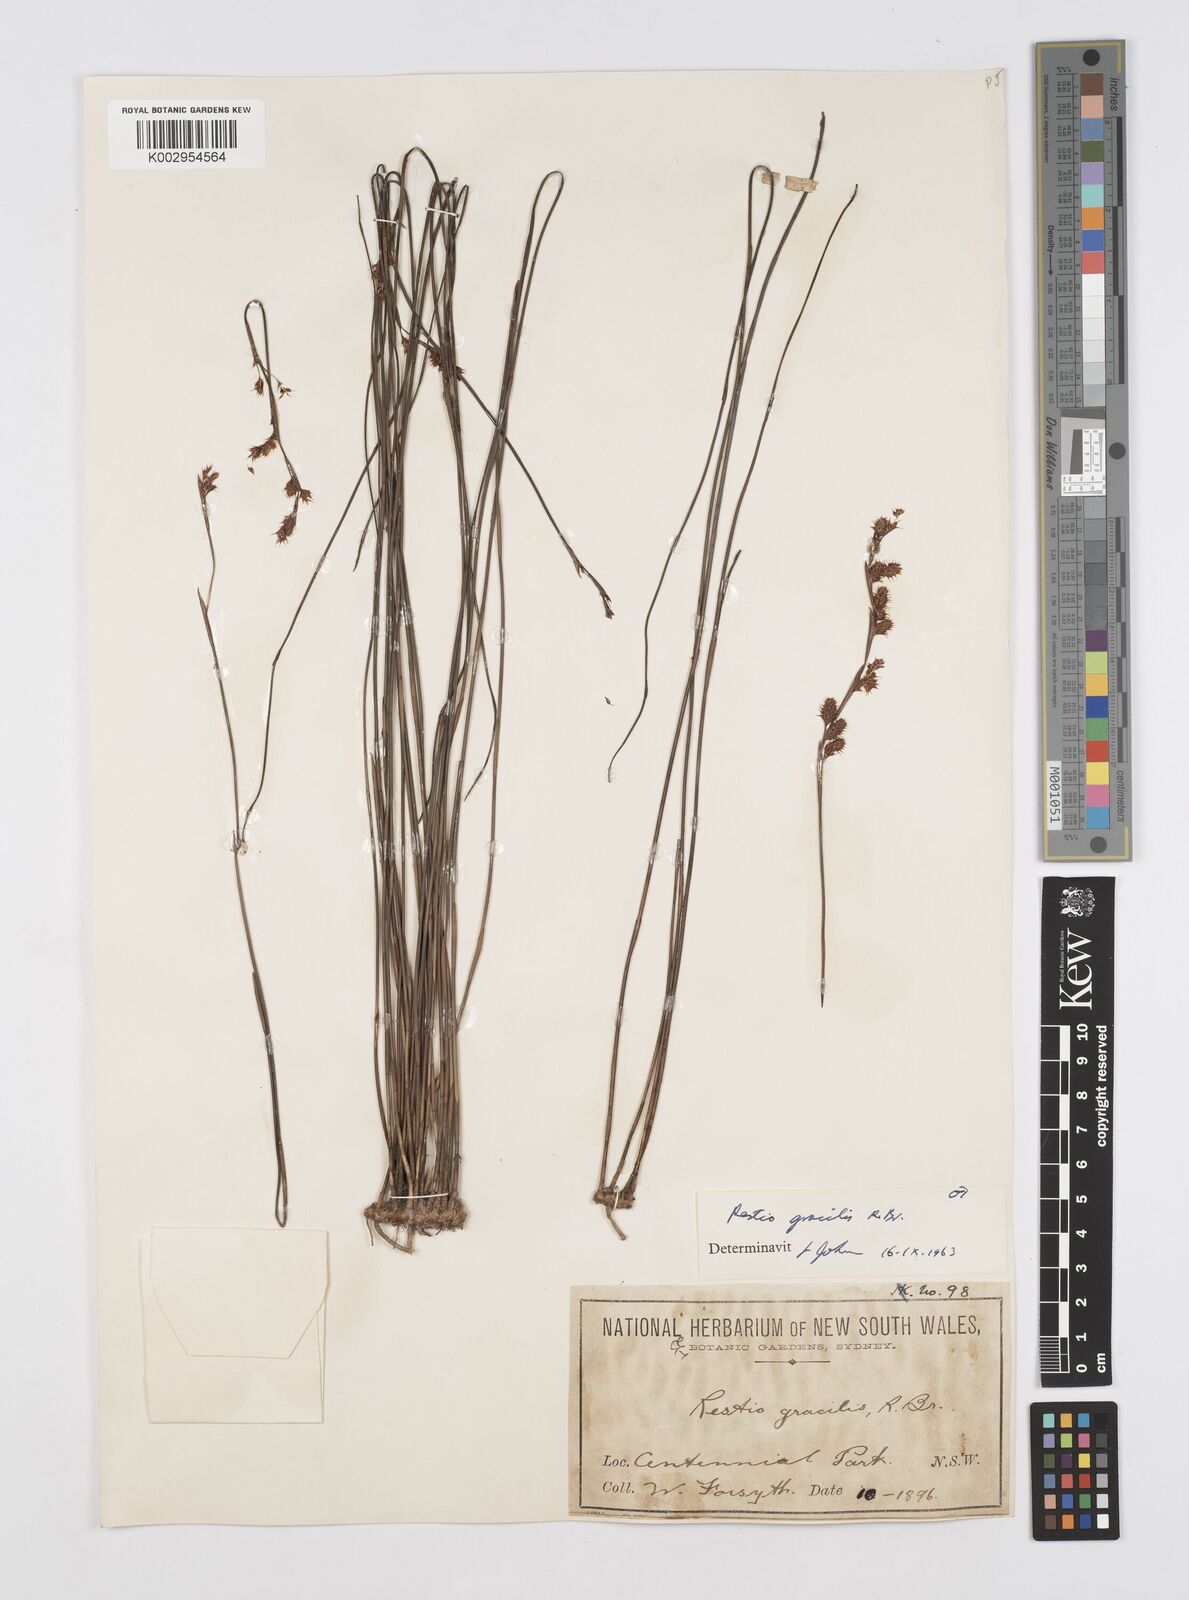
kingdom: Plantae
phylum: Tracheophyta
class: Liliopsida
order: Poales
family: Restionaceae
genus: Baloskion
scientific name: Baloskion gracile
